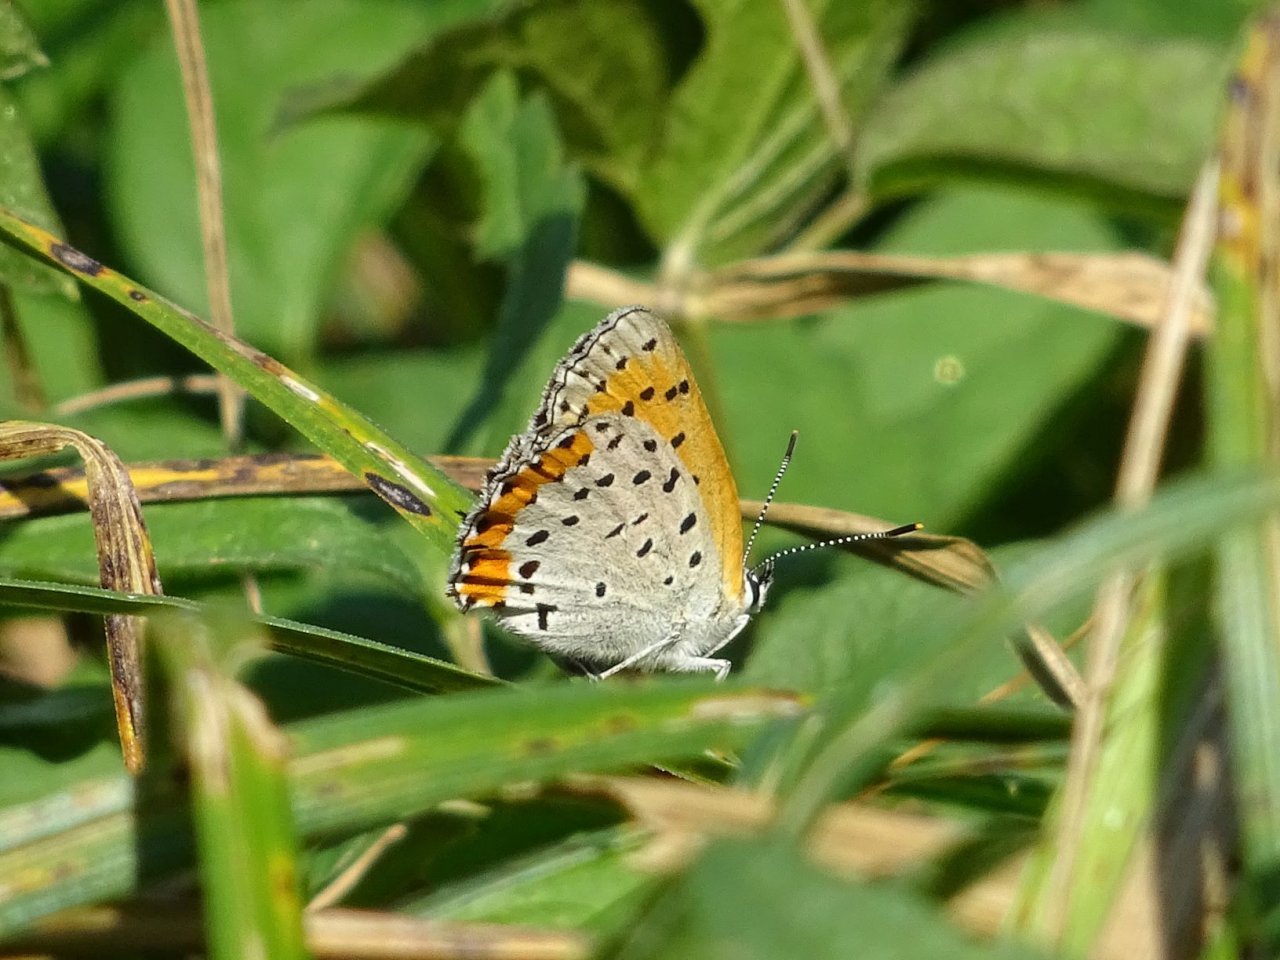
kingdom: Animalia
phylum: Arthropoda
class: Insecta
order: Lepidoptera
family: Sesiidae
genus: Sesia
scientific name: Sesia Lycaena hyllus
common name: Bronze Copper
